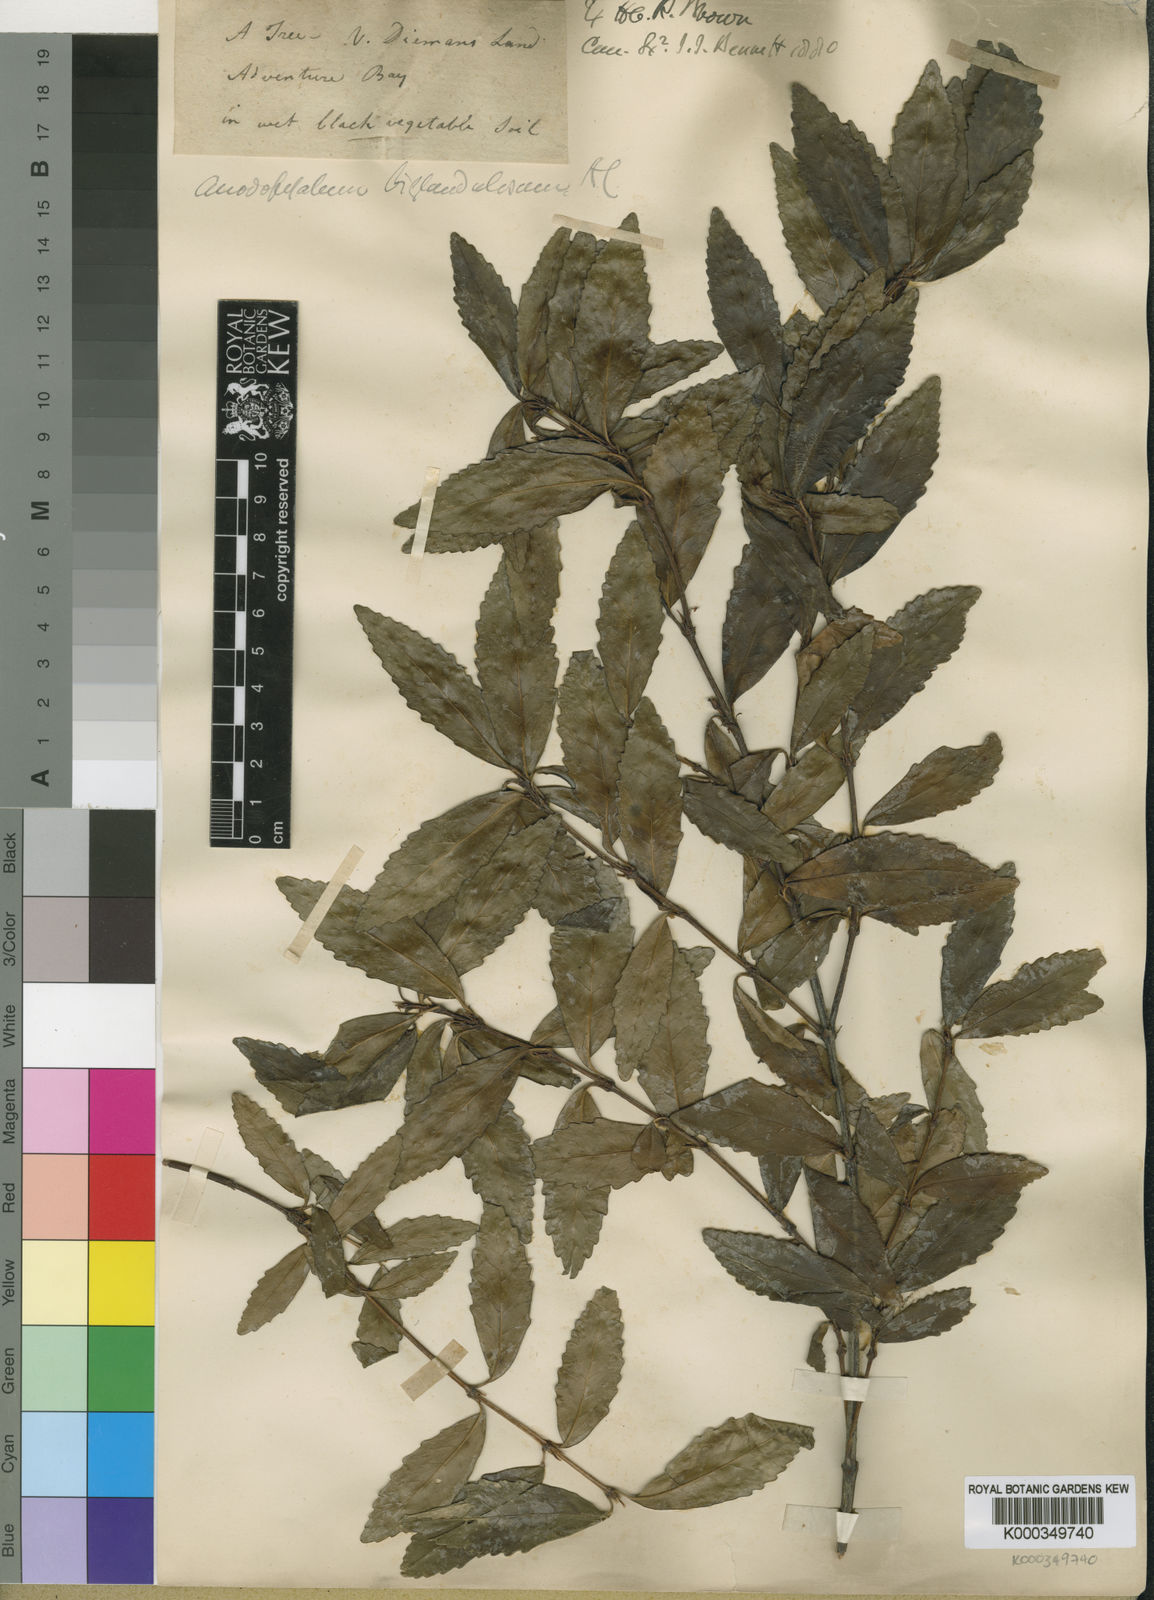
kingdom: Plantae
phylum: Tracheophyta
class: Magnoliopsida
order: Oxalidales
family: Cunoniaceae
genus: Anodopetalum
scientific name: Anodopetalum biglandulosum
